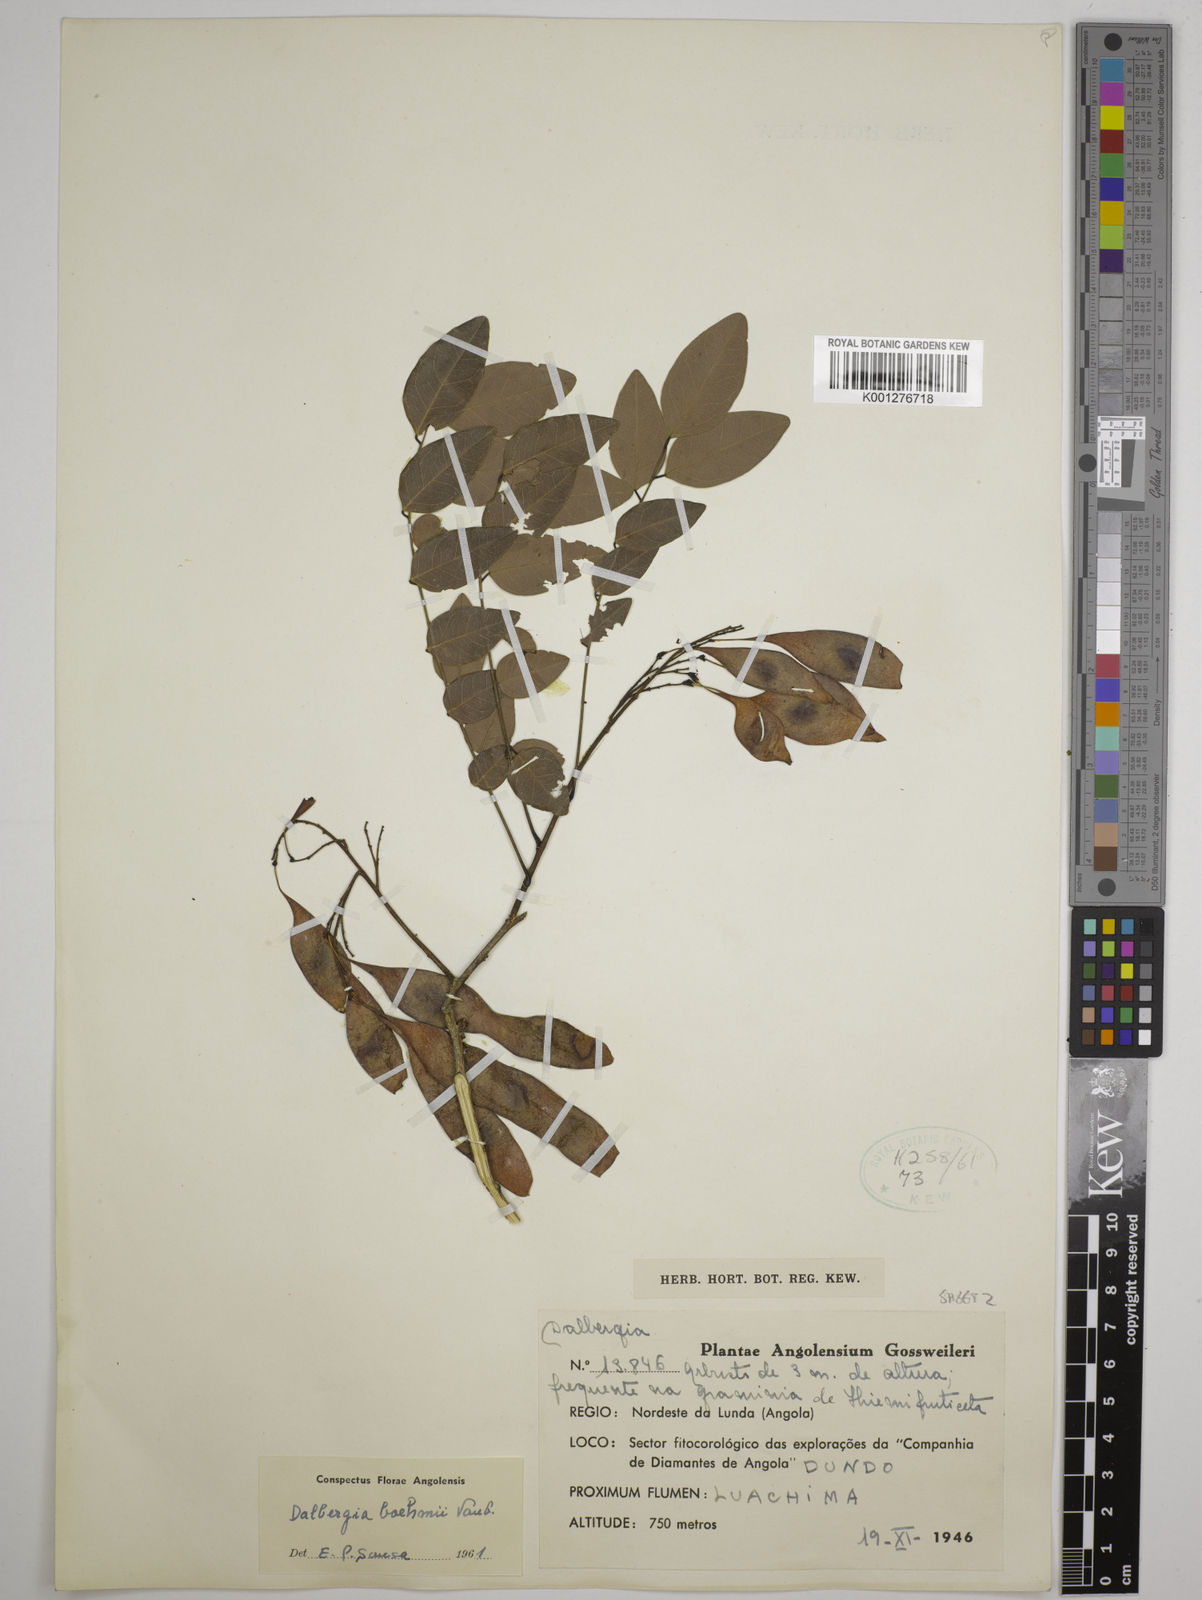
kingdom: Plantae
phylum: Tracheophyta
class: Magnoliopsida
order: Fabales
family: Fabaceae
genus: Dalbergia
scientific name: Dalbergia boehmii
